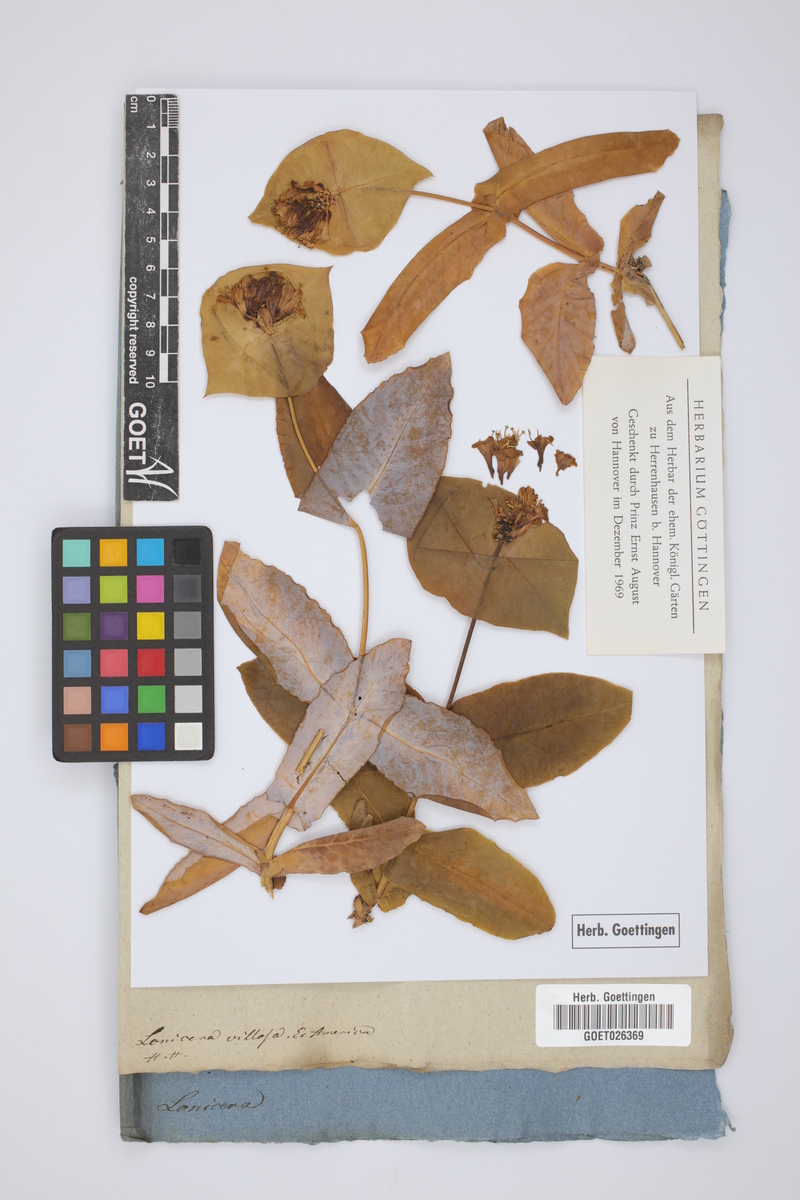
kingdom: Plantae
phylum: Tracheophyta
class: Magnoliopsida
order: Dipsacales
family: Caprifoliaceae
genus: Lonicera
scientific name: Lonicera villosa
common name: Mountain fly-honeysuckle
